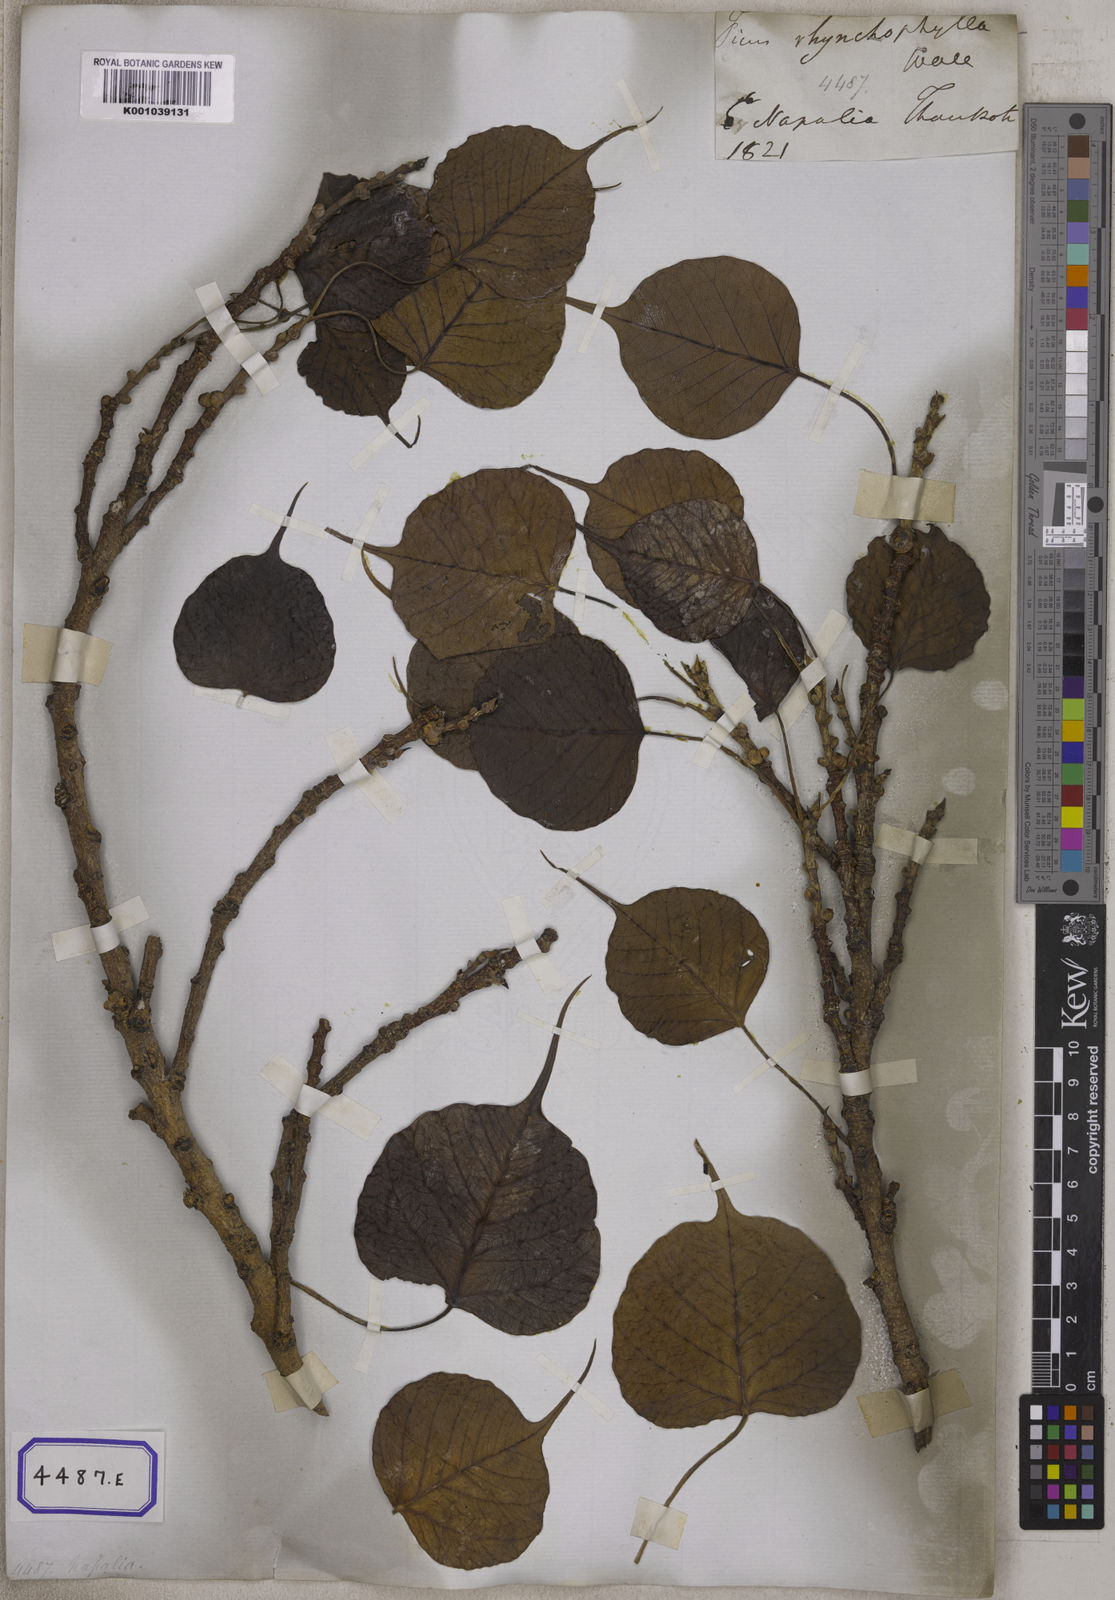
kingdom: Plantae
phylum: Tracheophyta
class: Magnoliopsida
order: Rosales
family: Moraceae
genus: Ficus
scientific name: Ficus religiosa
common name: Bodhi tree
